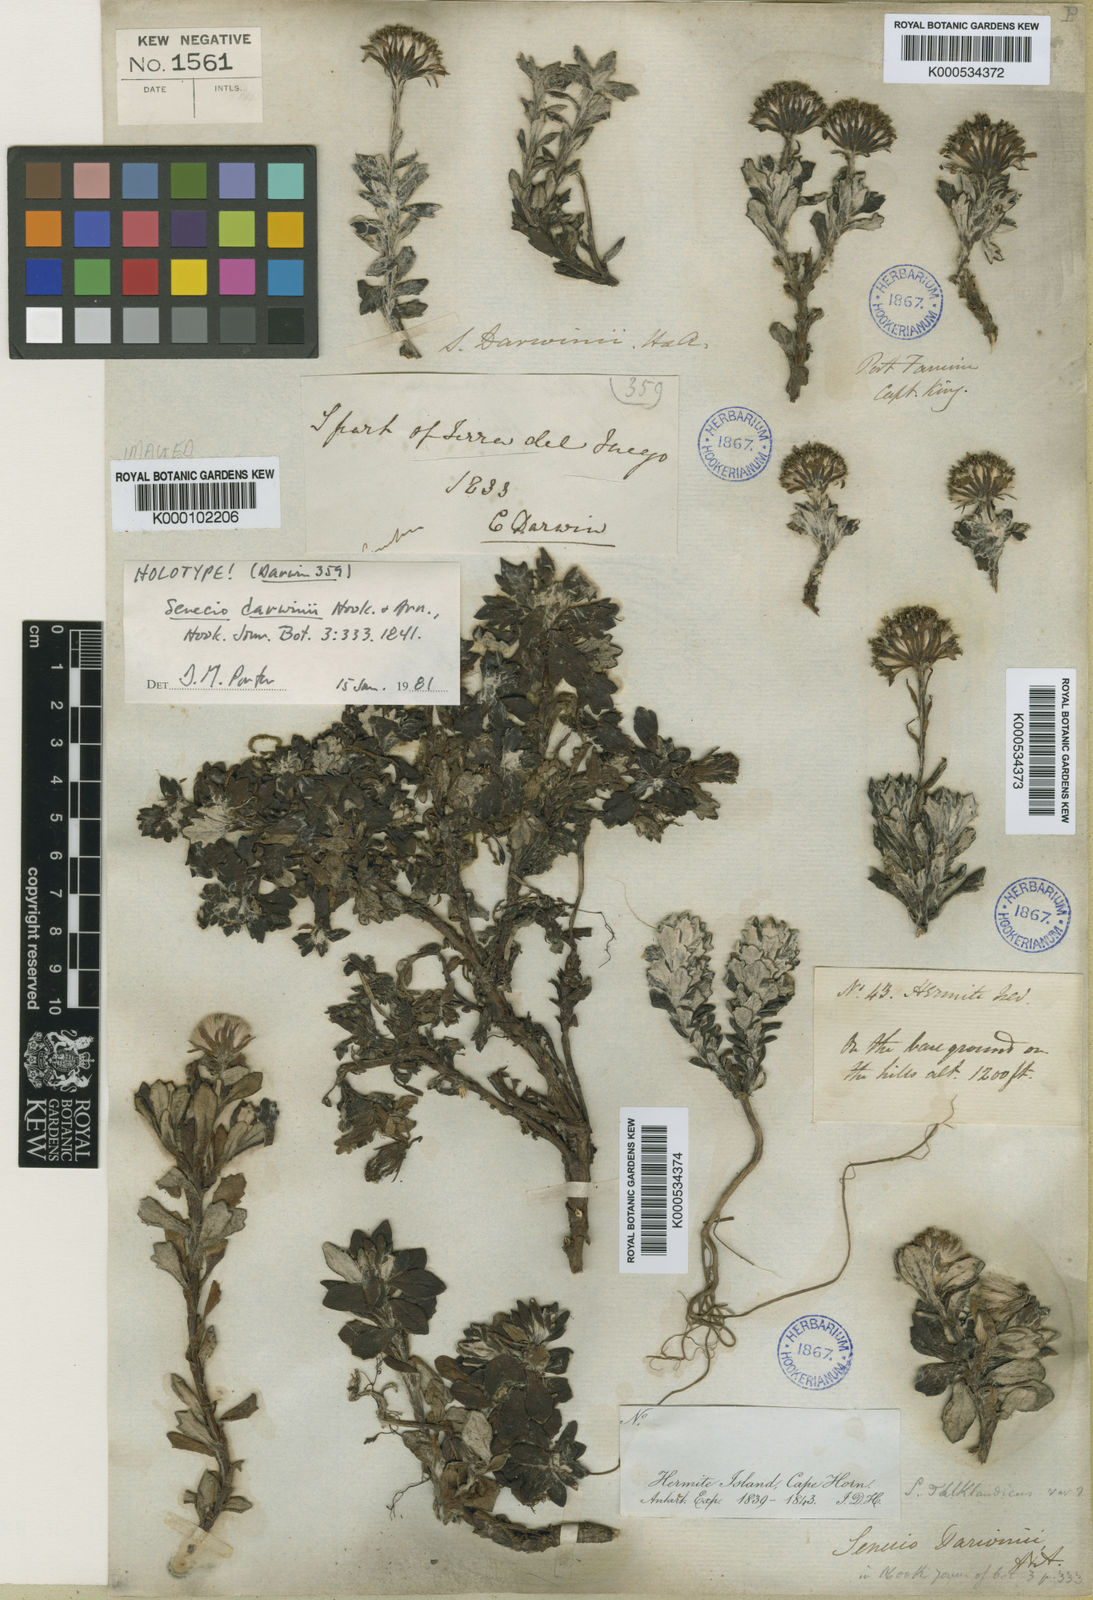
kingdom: Plantae
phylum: Tracheophyta
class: Magnoliopsida
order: Asterales
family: Asteraceae
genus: Senecio
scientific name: Senecio darwinii
